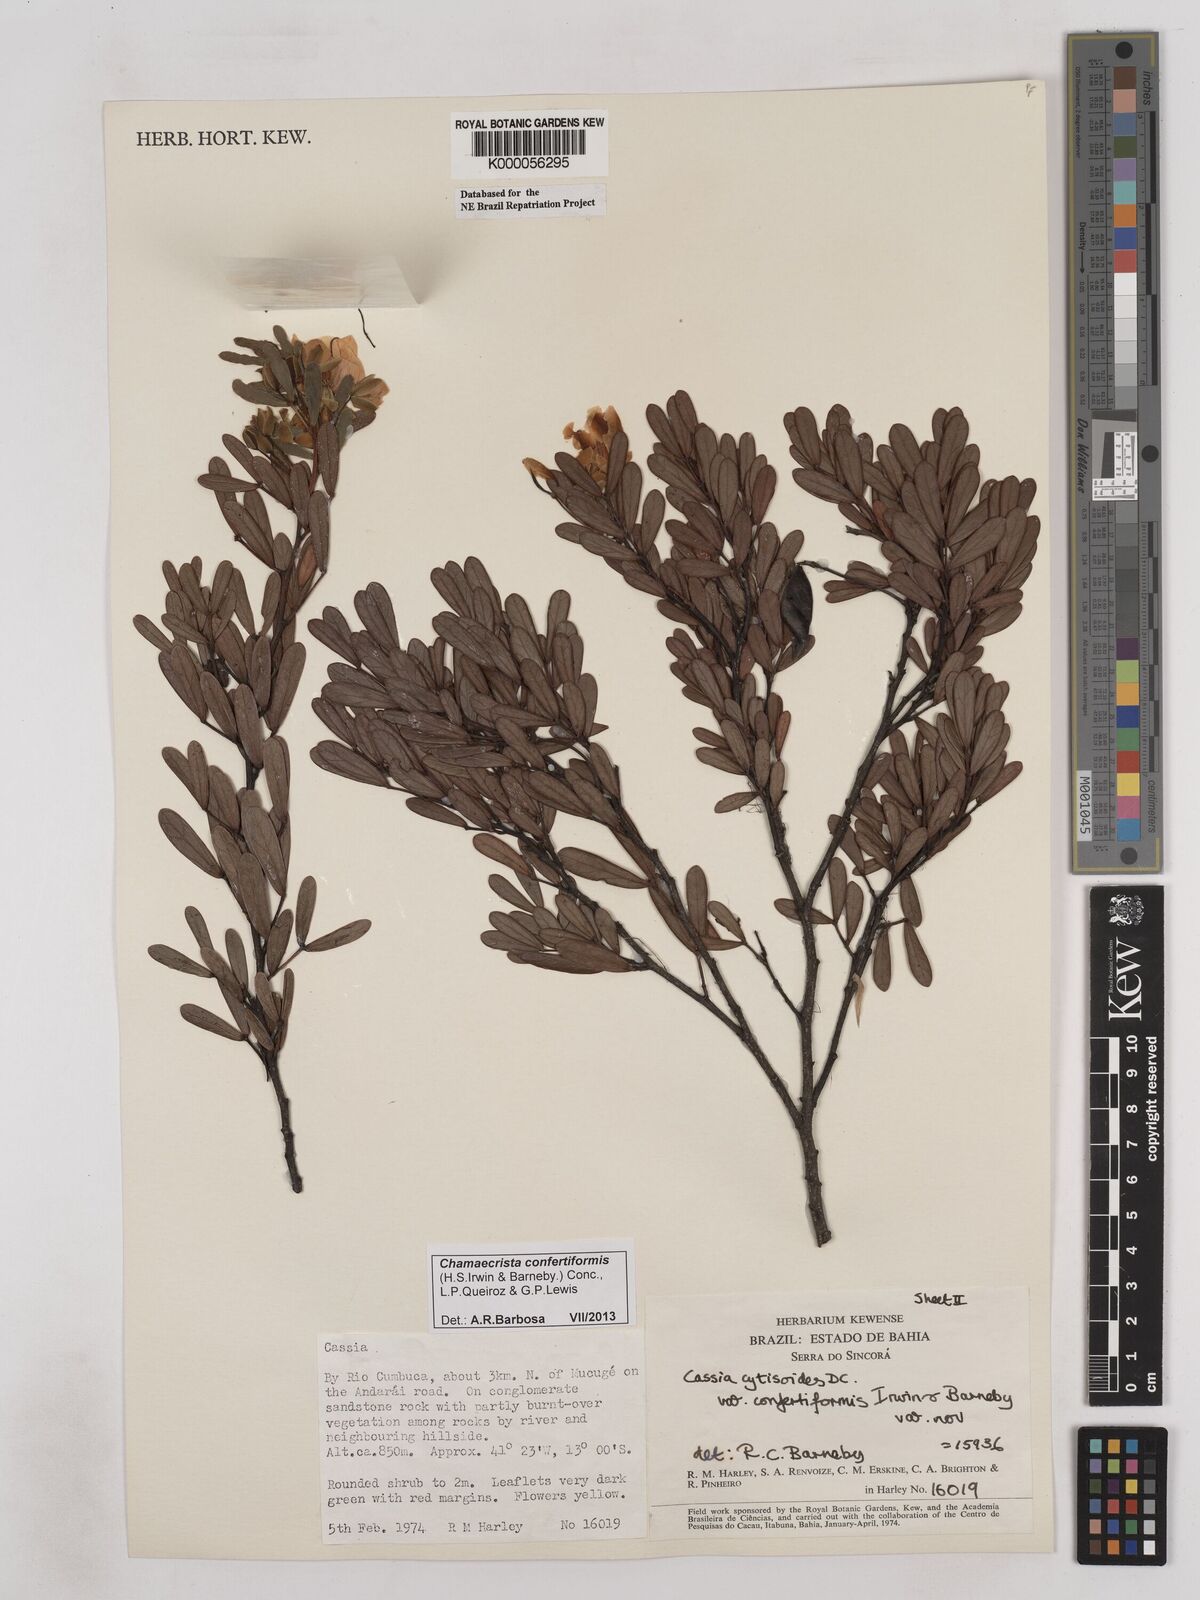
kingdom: Plantae
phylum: Tracheophyta
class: Magnoliopsida
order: Fabales
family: Fabaceae
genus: Chamaecrista
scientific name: Chamaecrista confertiformis
